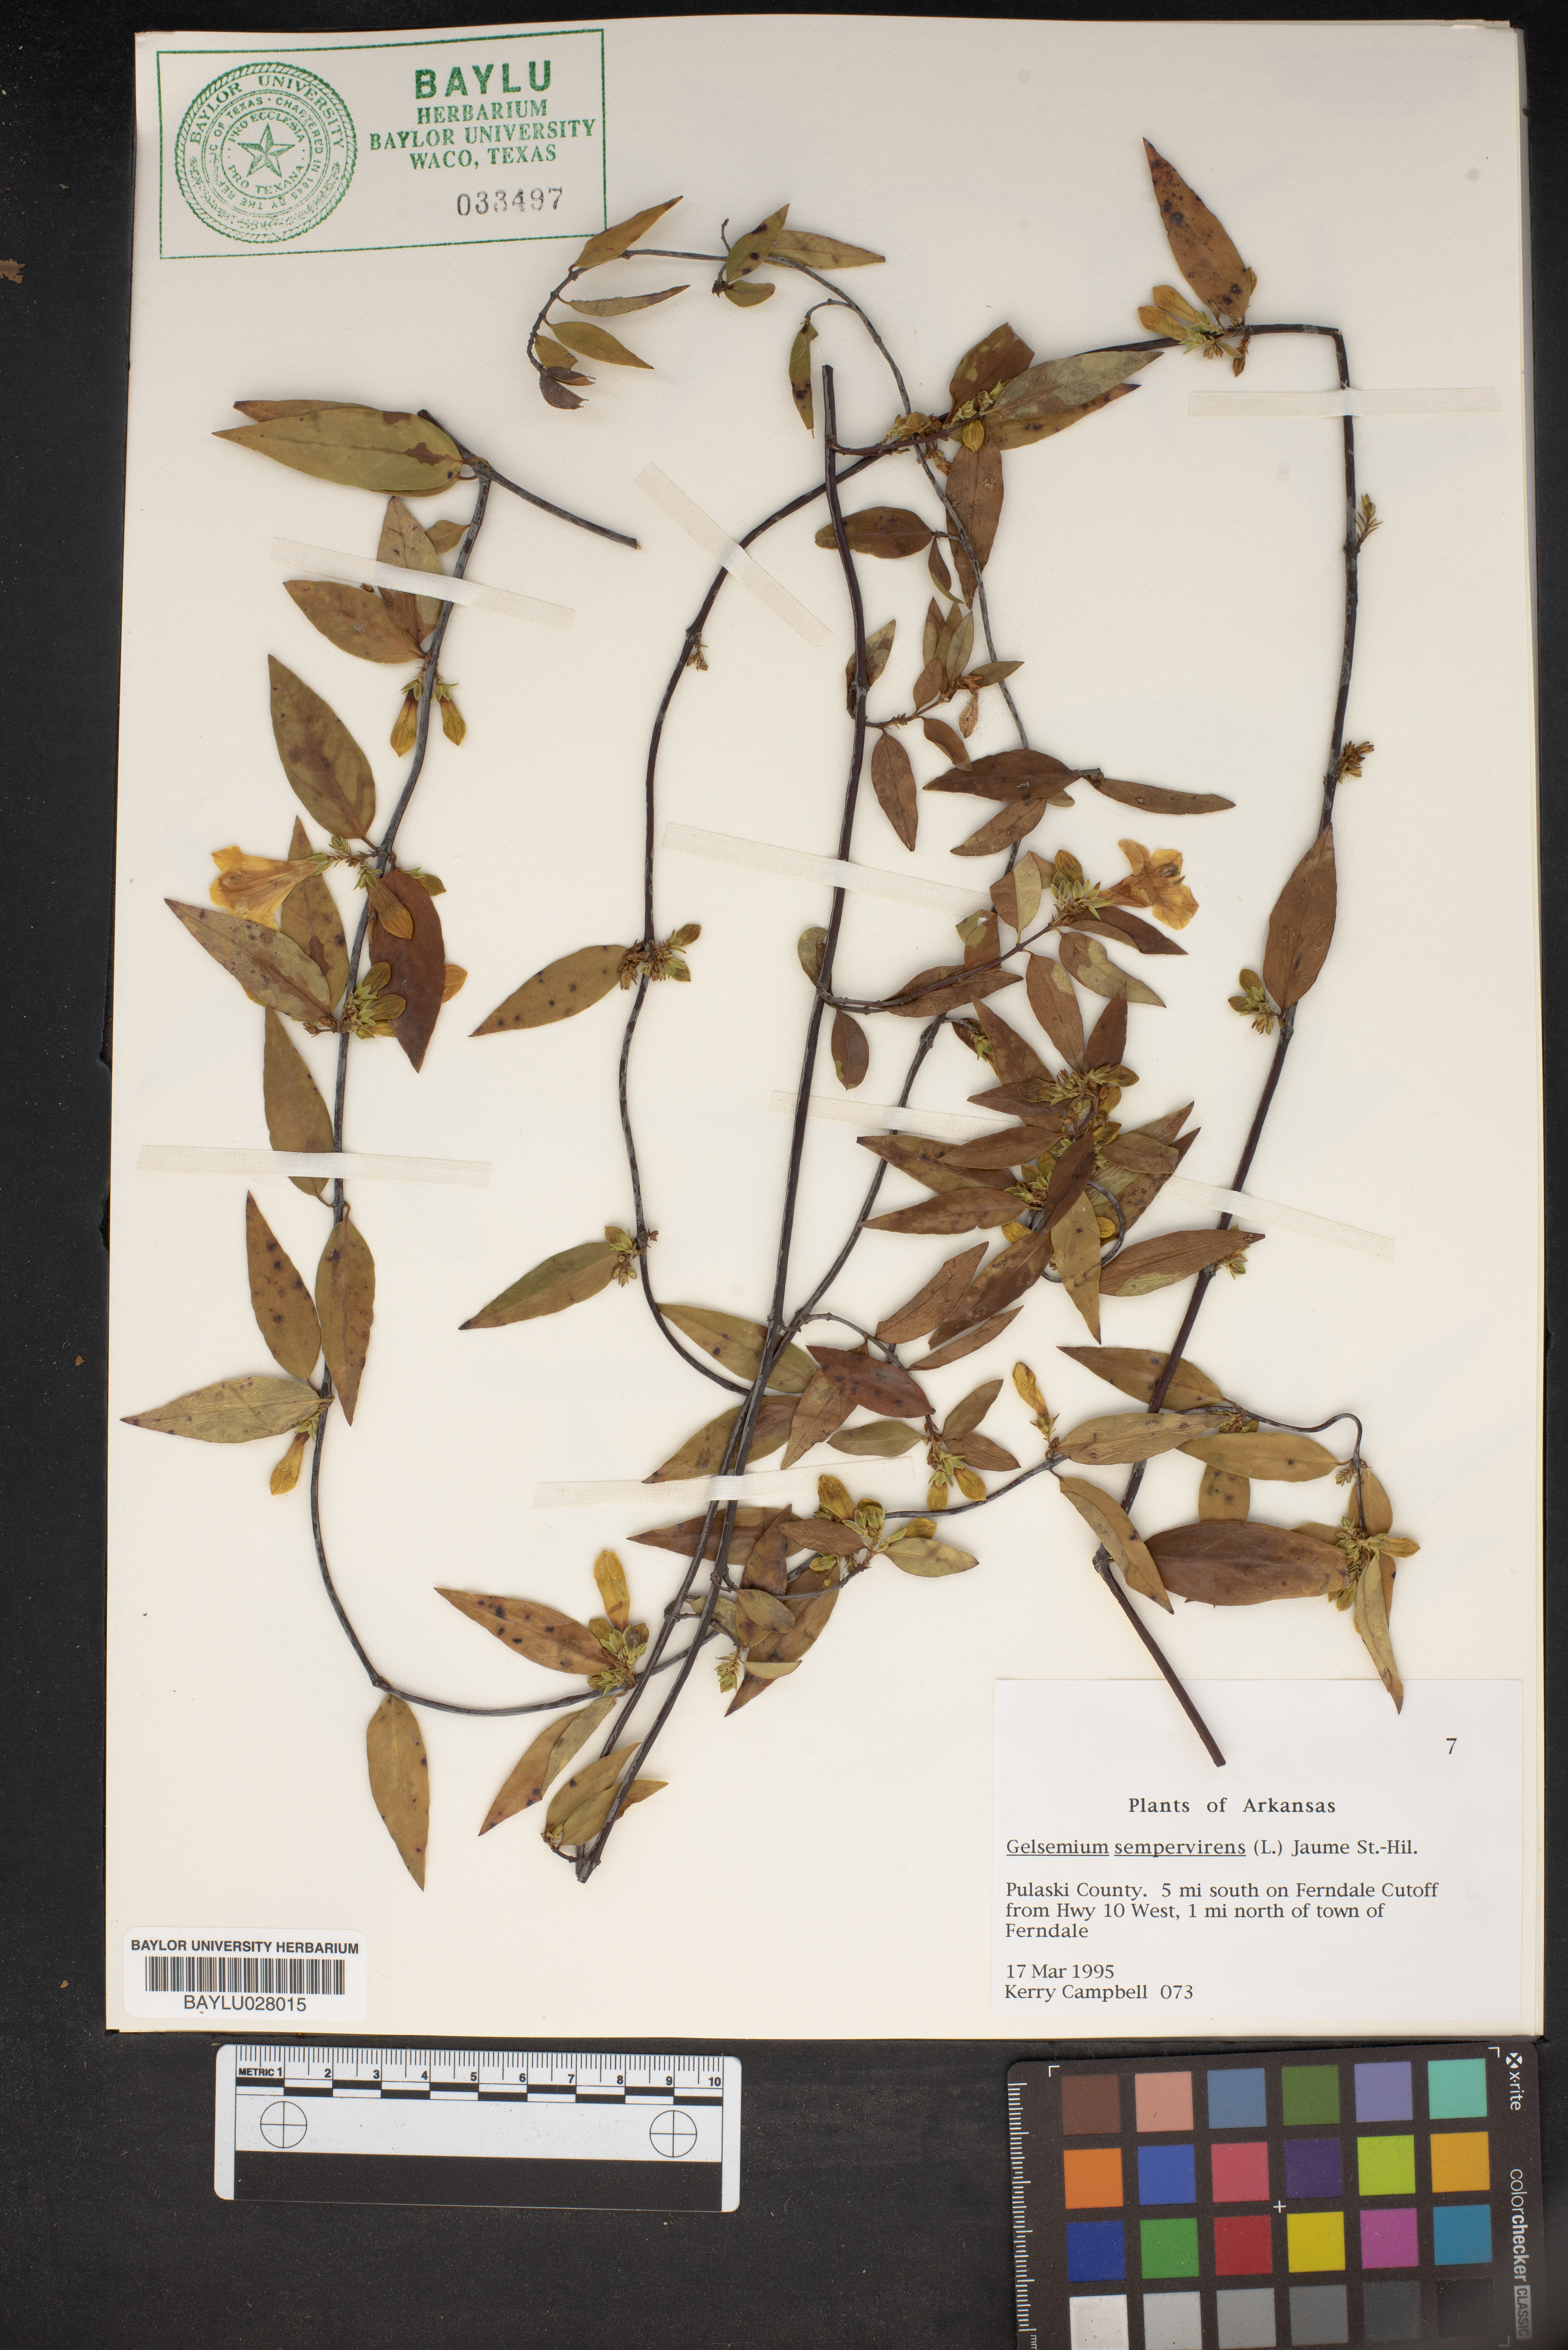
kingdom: Plantae
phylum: Tracheophyta
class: Magnoliopsida
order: Gentianales
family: Gelsemiaceae
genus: Gelsemium
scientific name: Gelsemium sempervirens
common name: Carolina-jasmine
